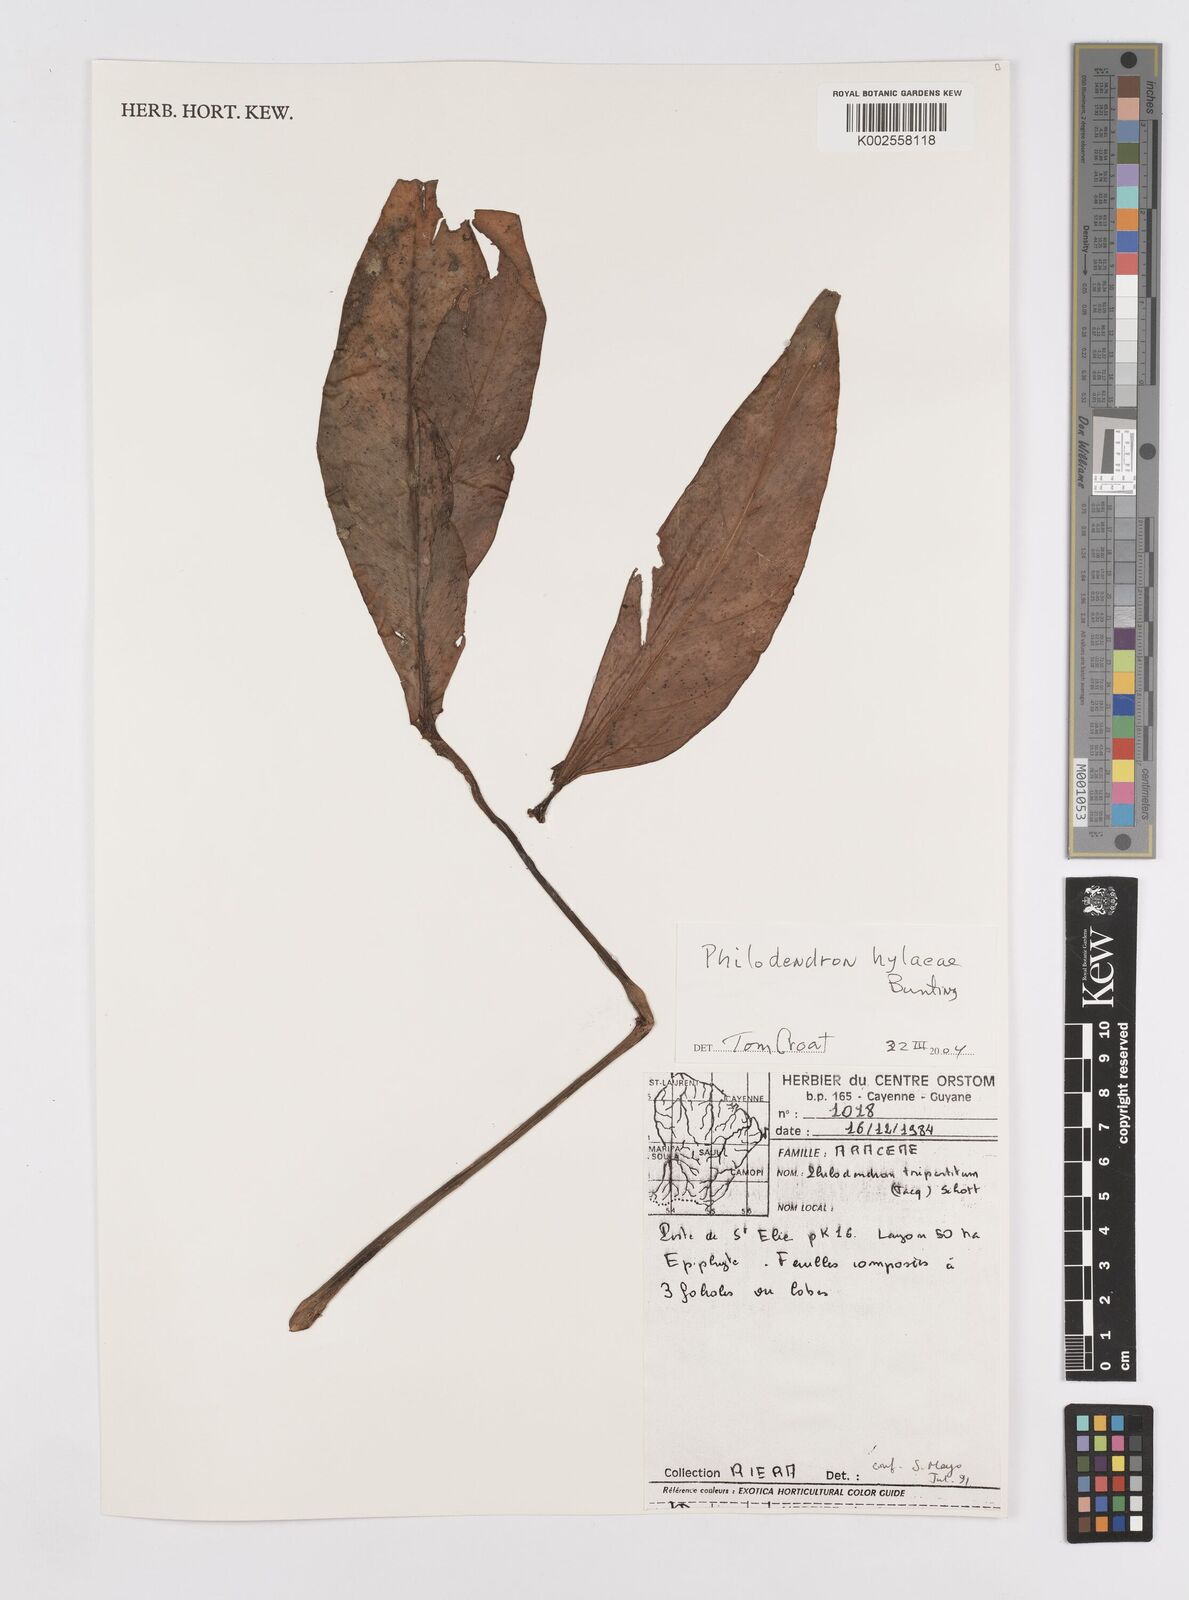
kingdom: Plantae
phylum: Tracheophyta
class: Liliopsida
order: Alismatales
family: Araceae
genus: Philodendron
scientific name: Philodendron hylaeae
